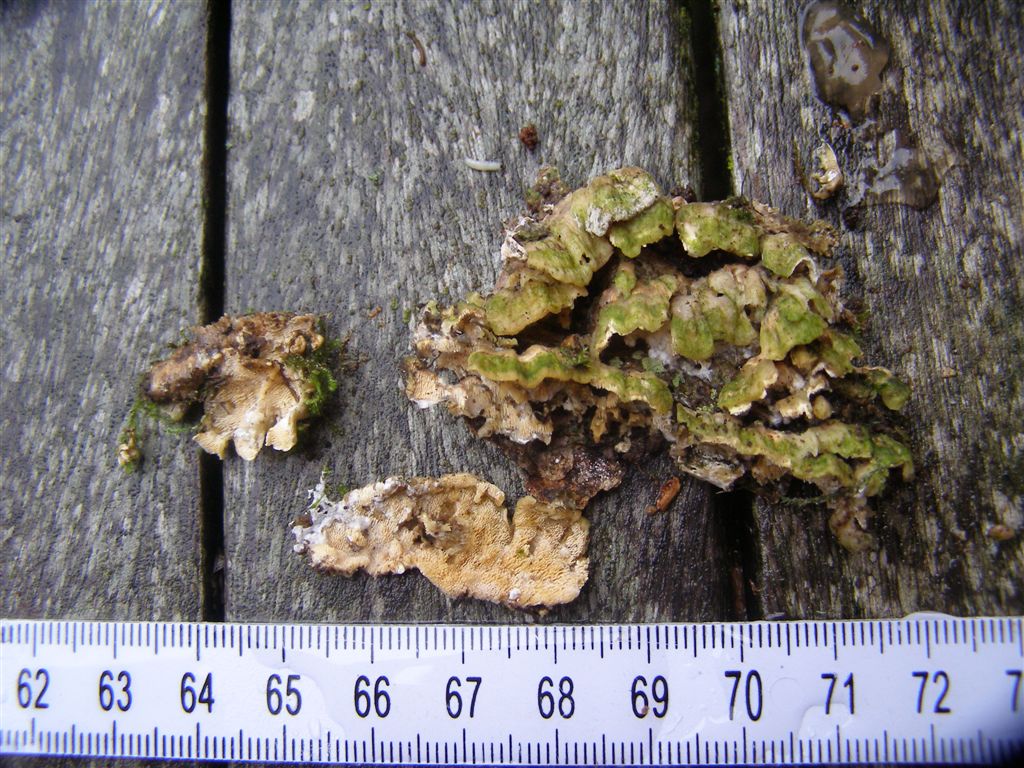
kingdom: Fungi
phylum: Basidiomycota
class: Agaricomycetes
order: Polyporales
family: Steccherinaceae
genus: Steccherinum
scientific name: Steccherinum ochraceum
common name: almindelig skønpig
